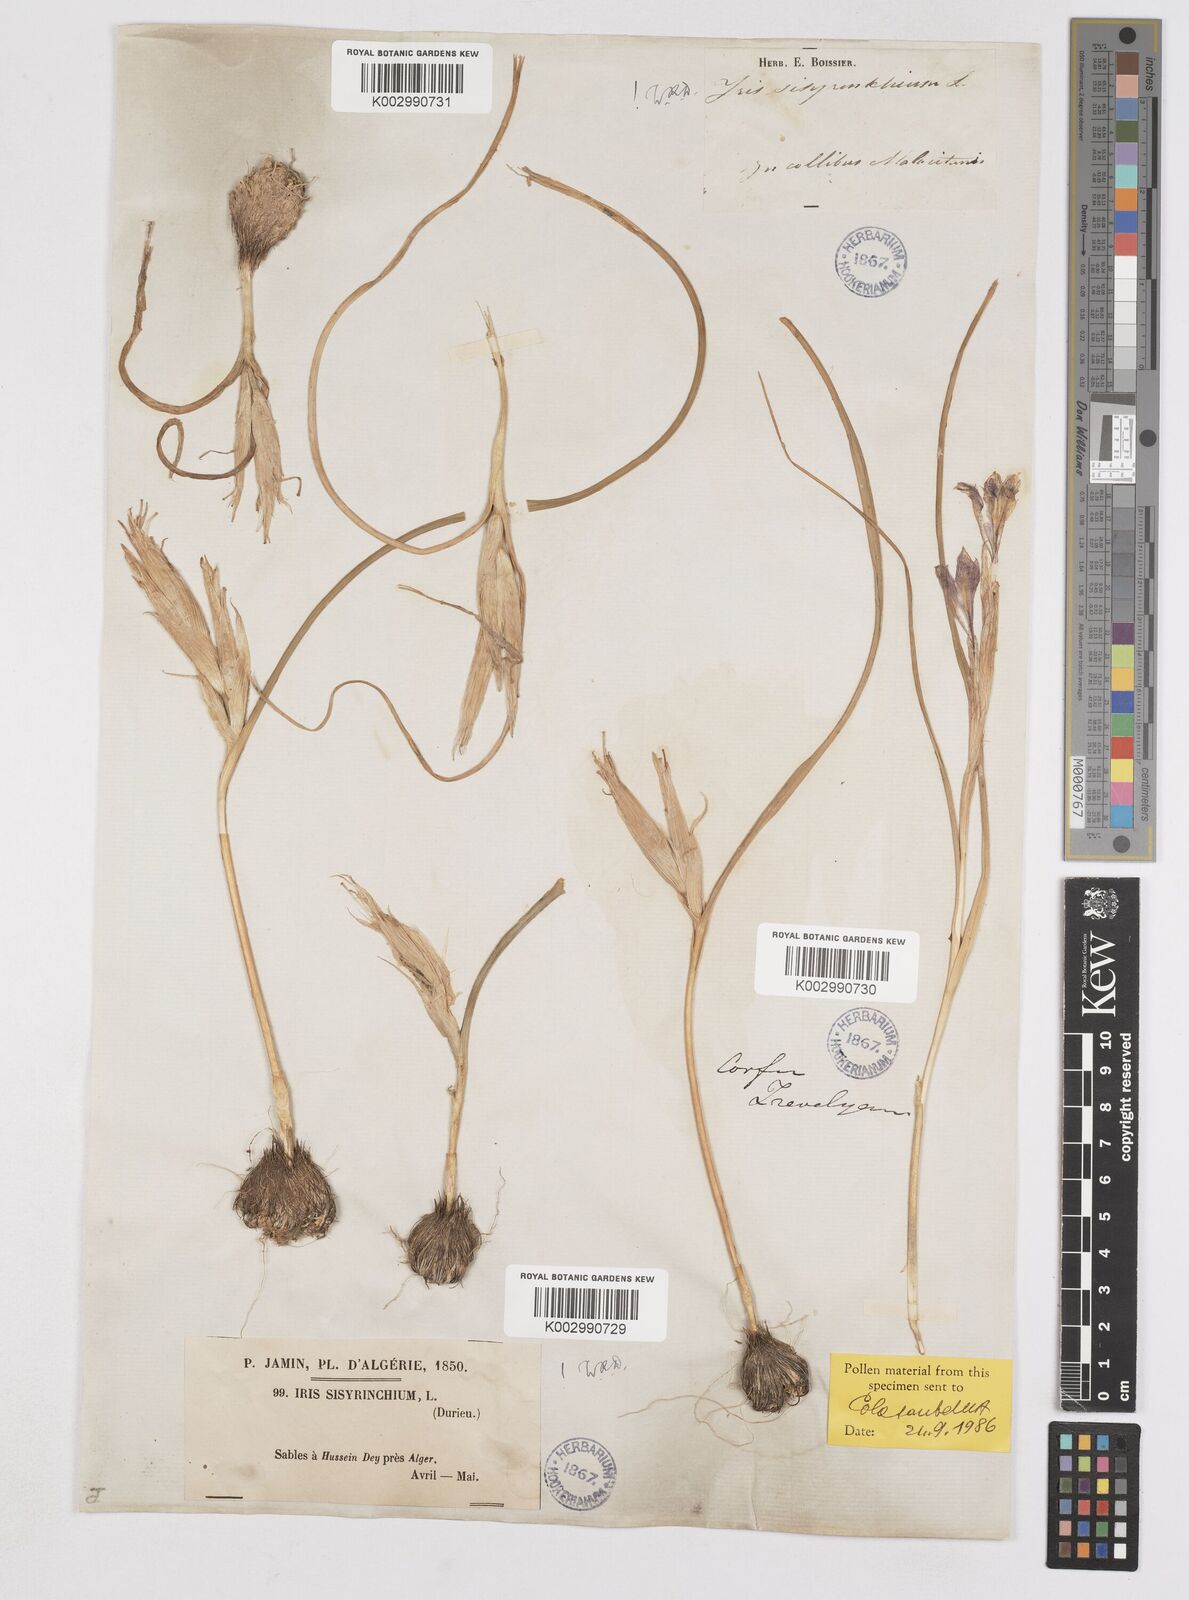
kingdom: Plantae
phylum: Tracheophyta
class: Liliopsida
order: Asparagales
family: Iridaceae
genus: Moraea
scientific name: Moraea sisyrinchium
